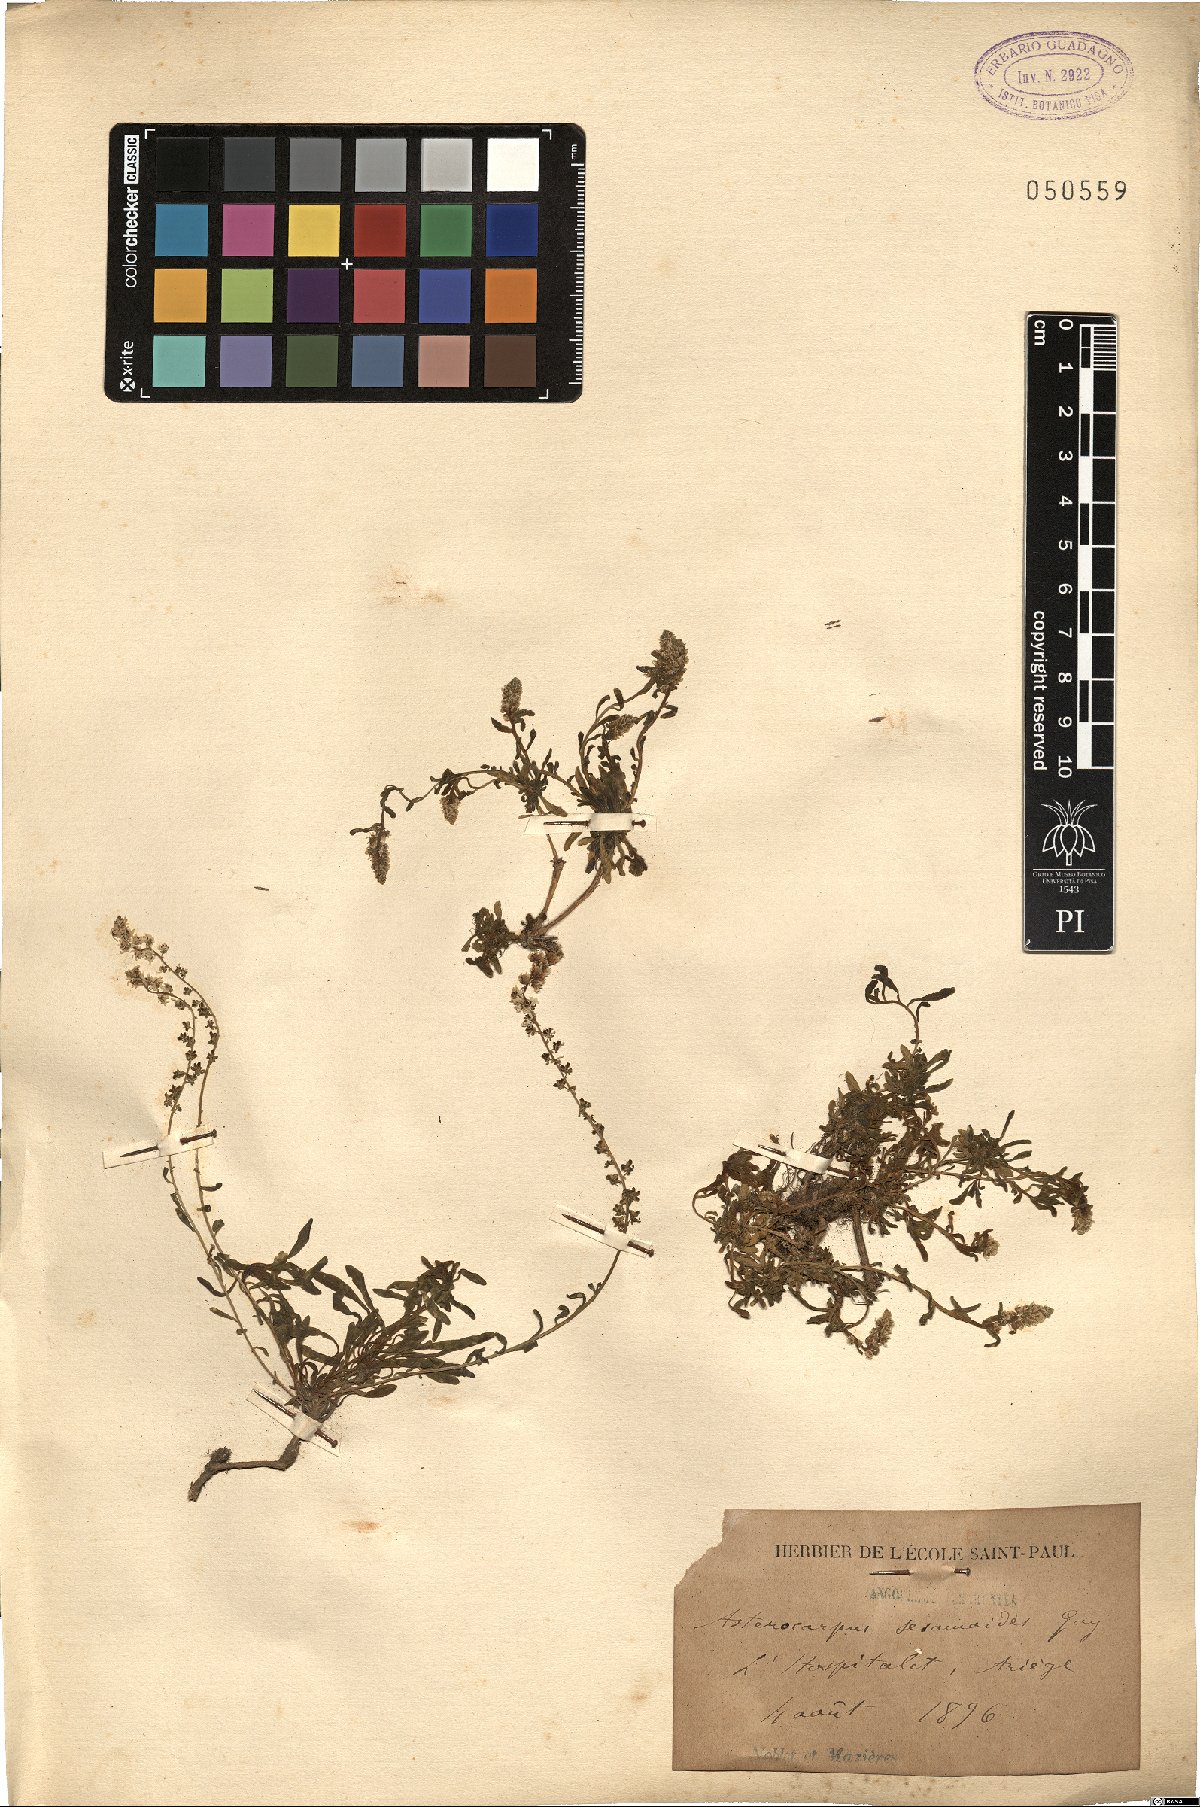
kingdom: Plantae
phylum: Tracheophyta
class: Magnoliopsida
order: Brassicales
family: Resedaceae
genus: Sesamoides
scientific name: Sesamoides interrupta
